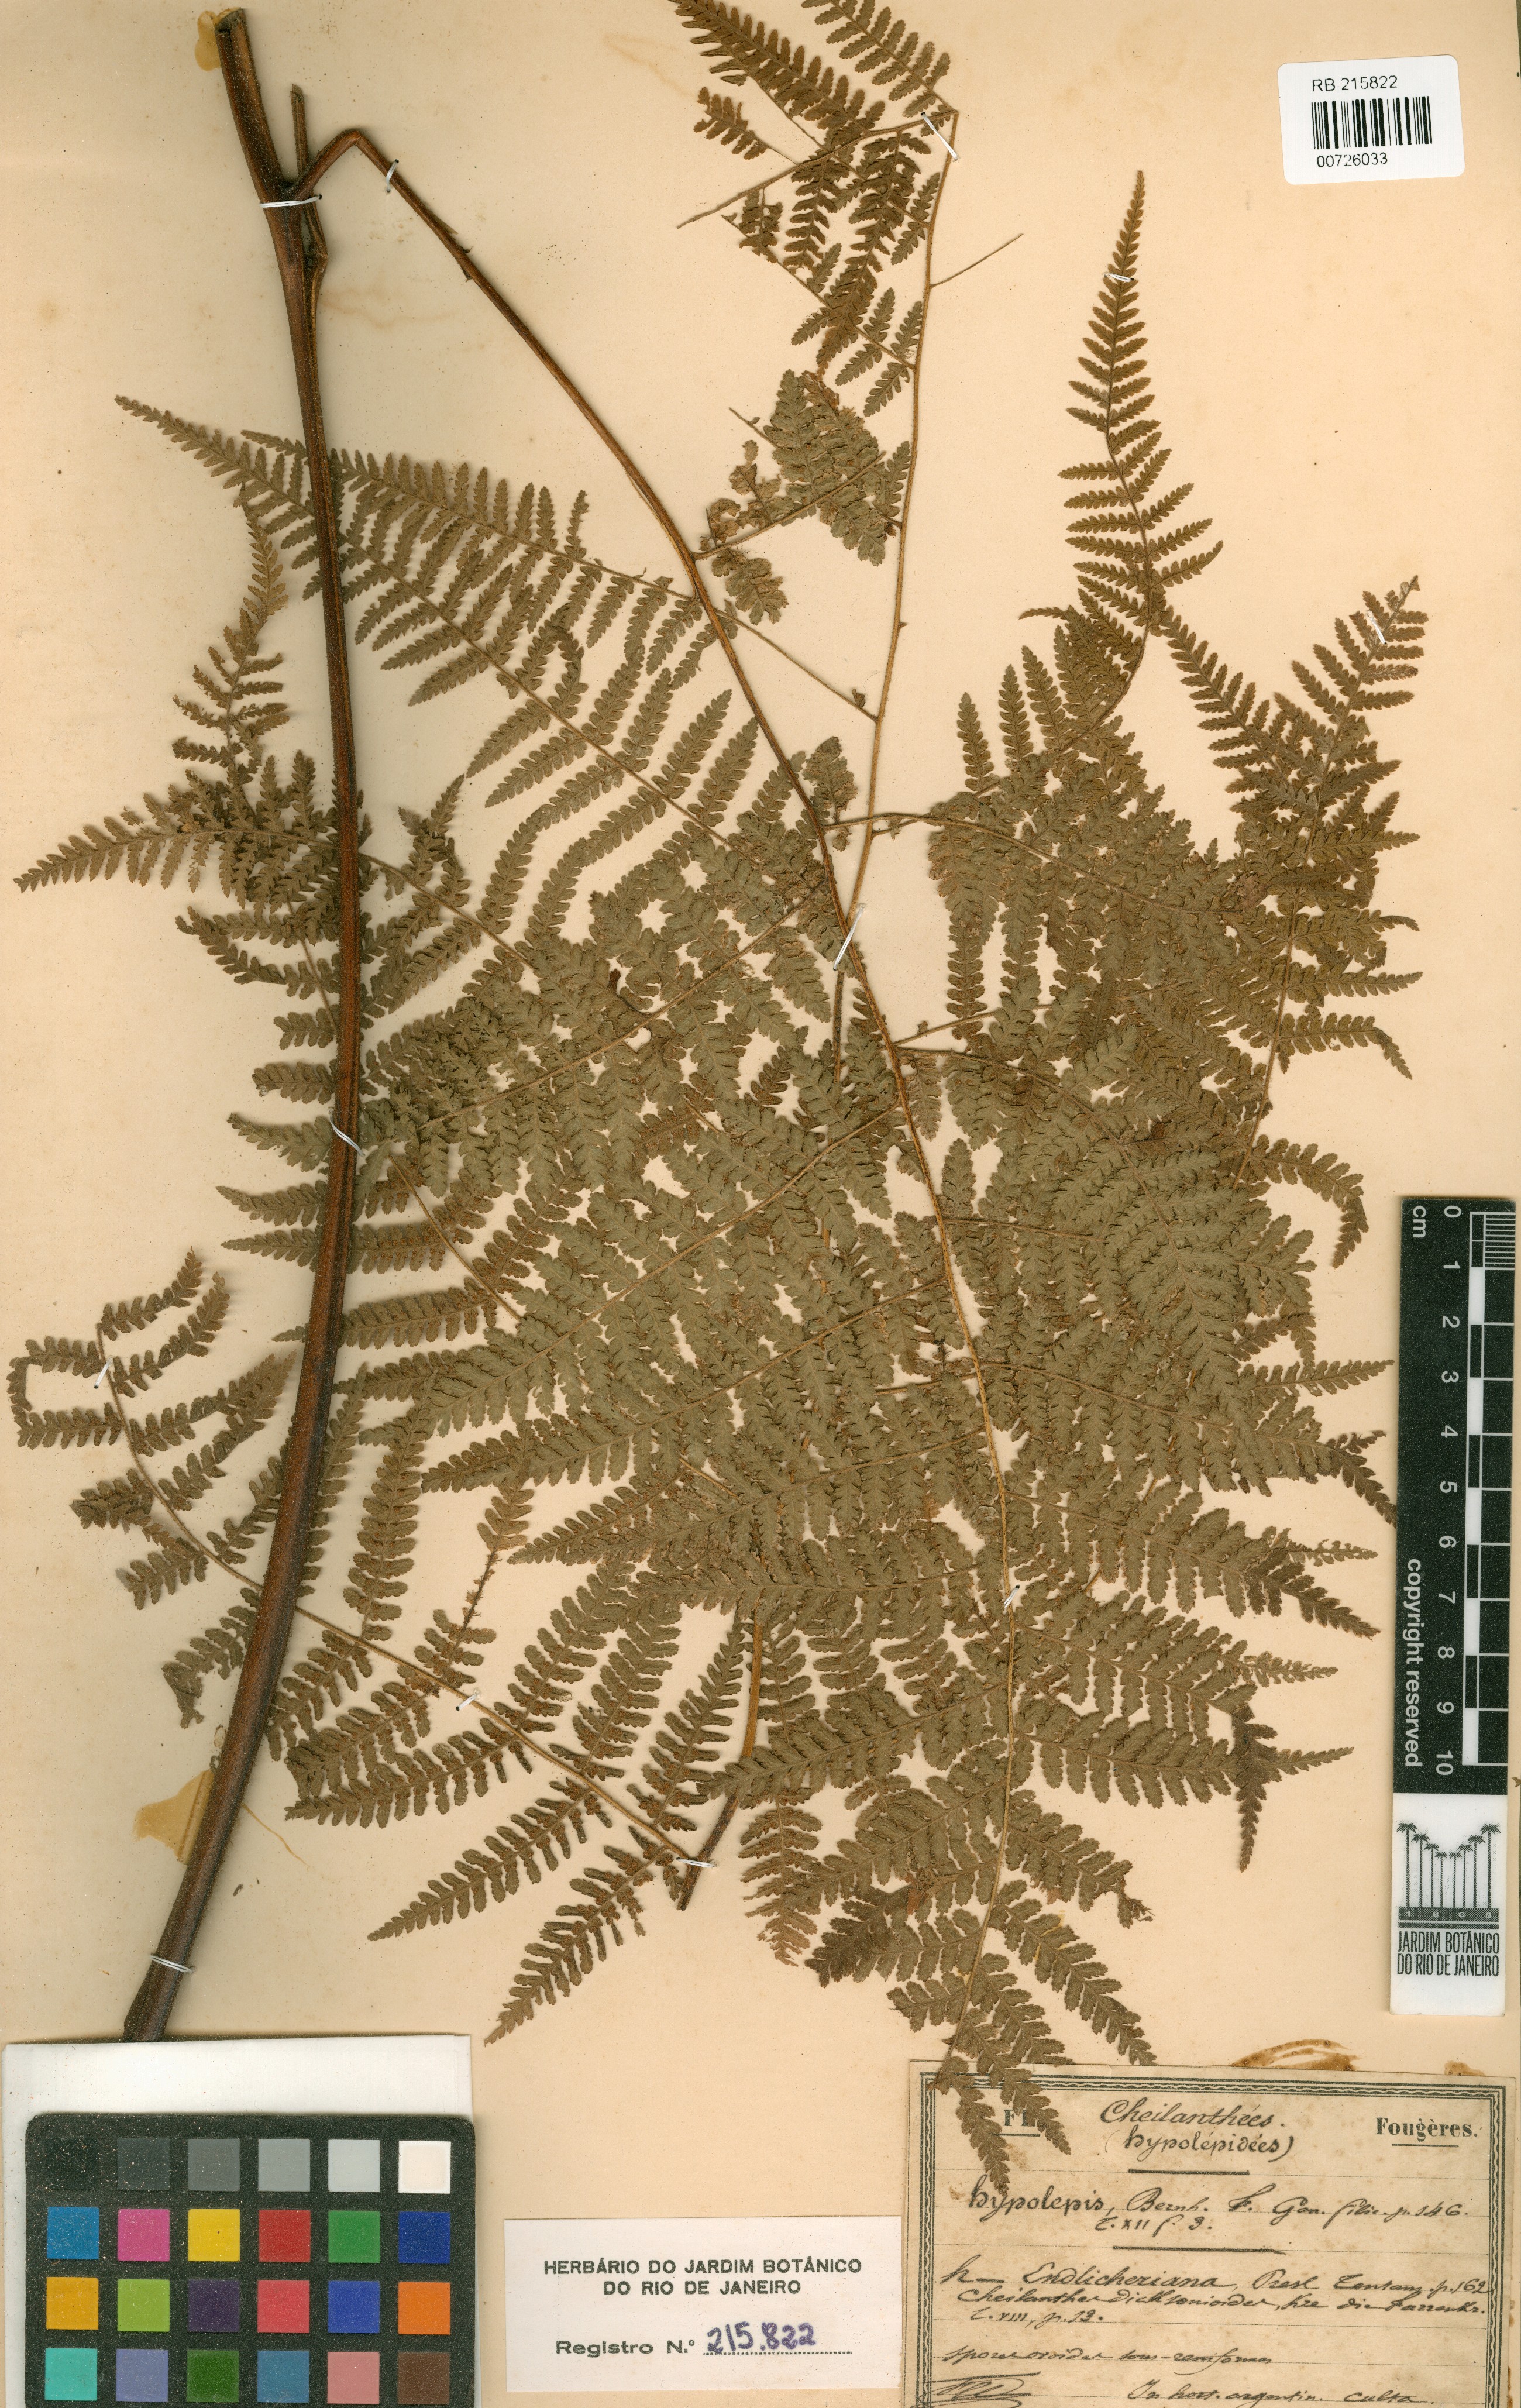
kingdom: Plantae
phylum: Tracheophyta
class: Polypodiopsida
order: Polypodiales
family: Dennstaedtiaceae
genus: Hypolepis
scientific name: Hypolepis dicksonioides
